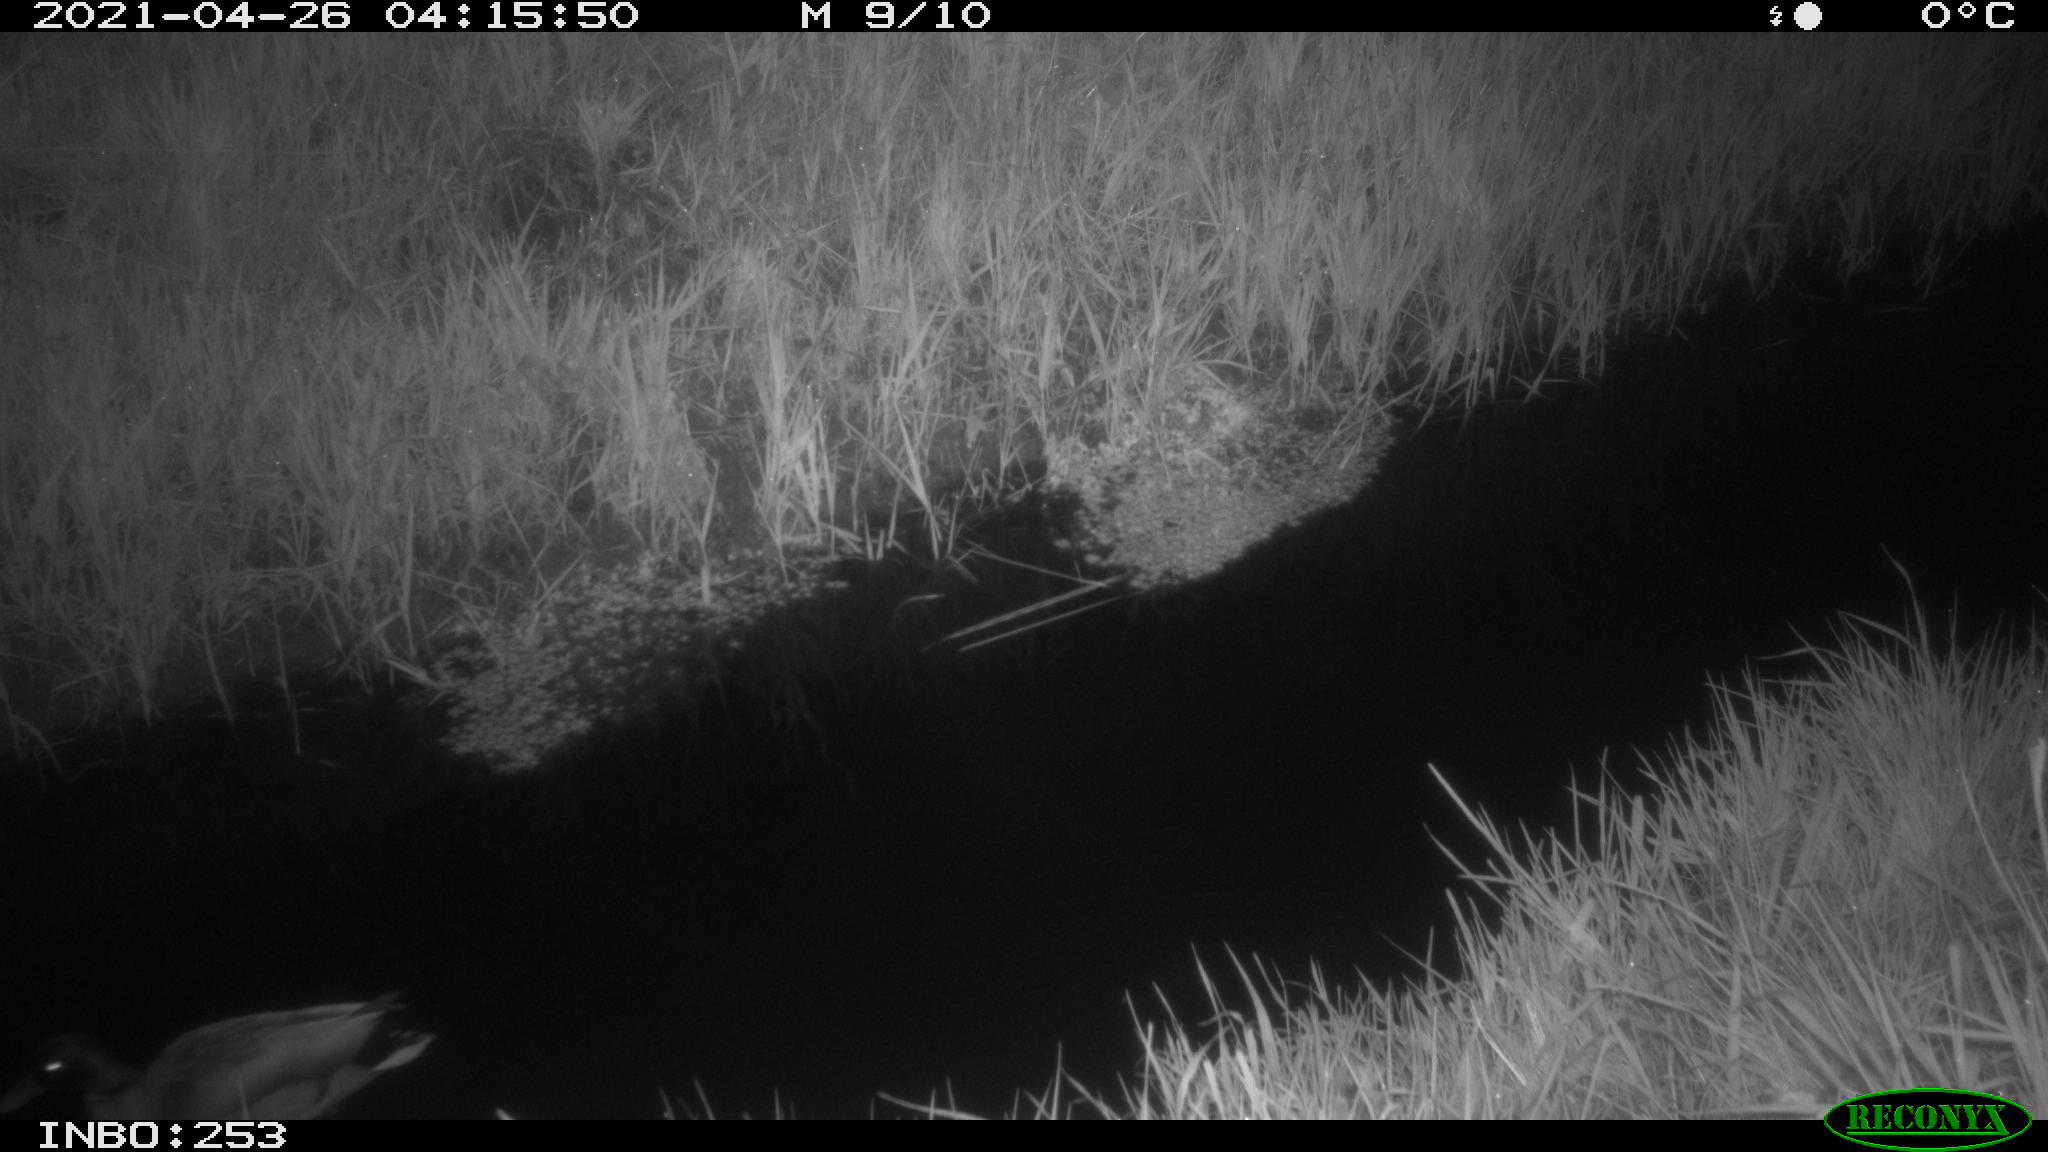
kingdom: Animalia
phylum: Chordata
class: Aves
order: Anseriformes
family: Anatidae
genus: Anas
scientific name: Anas platyrhynchos
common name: Mallard
